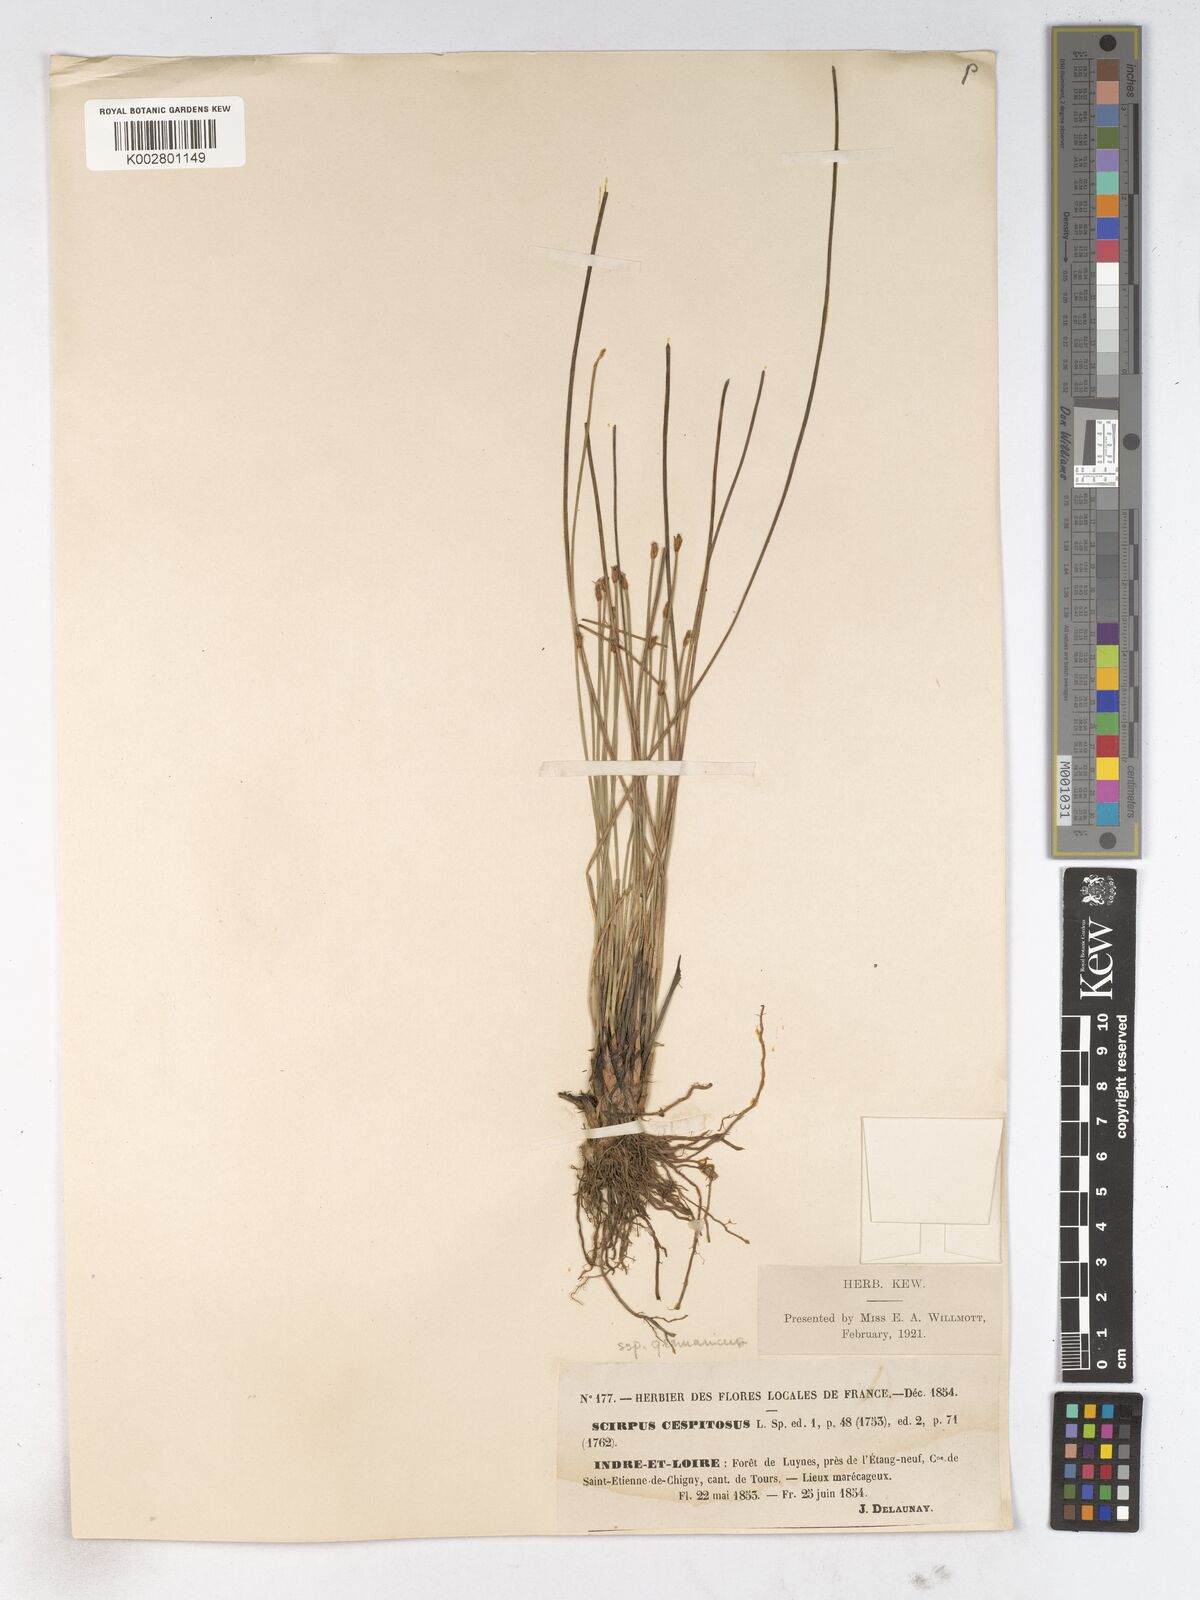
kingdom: Plantae
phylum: Tracheophyta
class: Liliopsida
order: Poales
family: Cyperaceae
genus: Trichophorum
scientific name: Trichophorum cespitosum
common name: Cespitose bulrush
